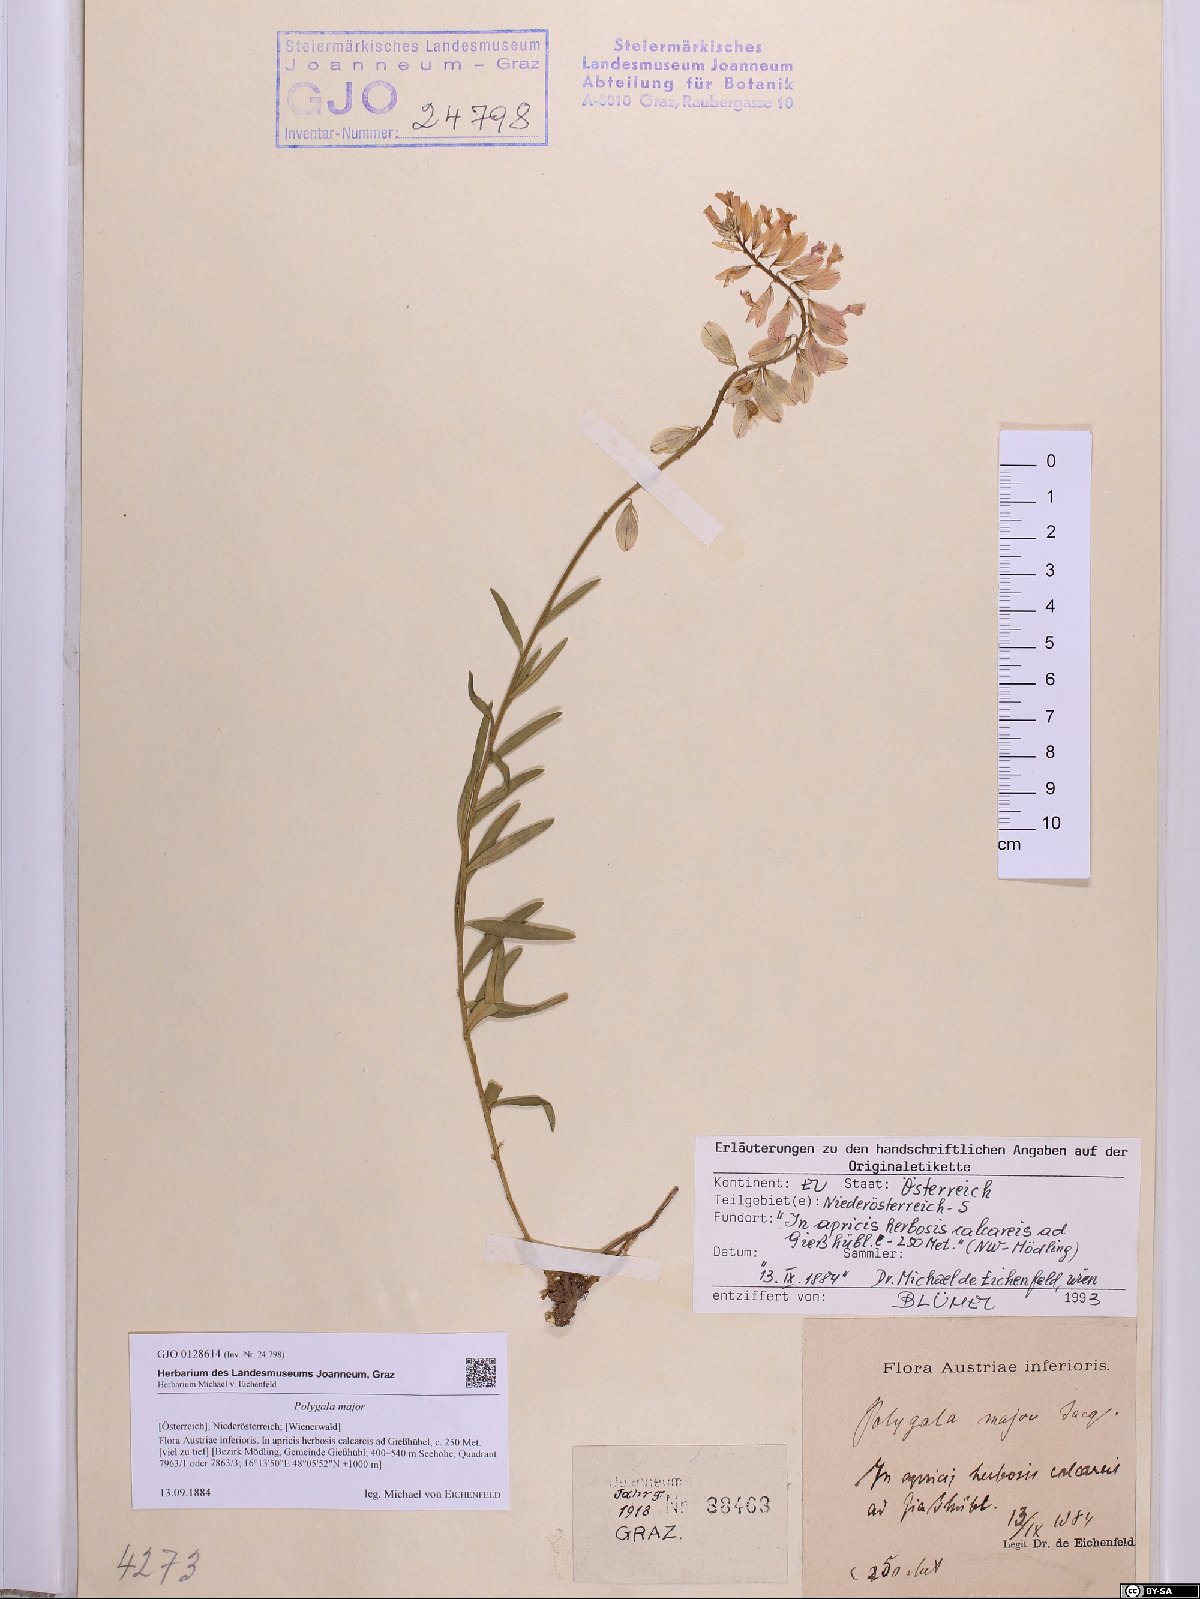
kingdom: Plantae
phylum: Tracheophyta
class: Magnoliopsida
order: Fabales
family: Polygalaceae
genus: Polygala
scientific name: Polygala major
